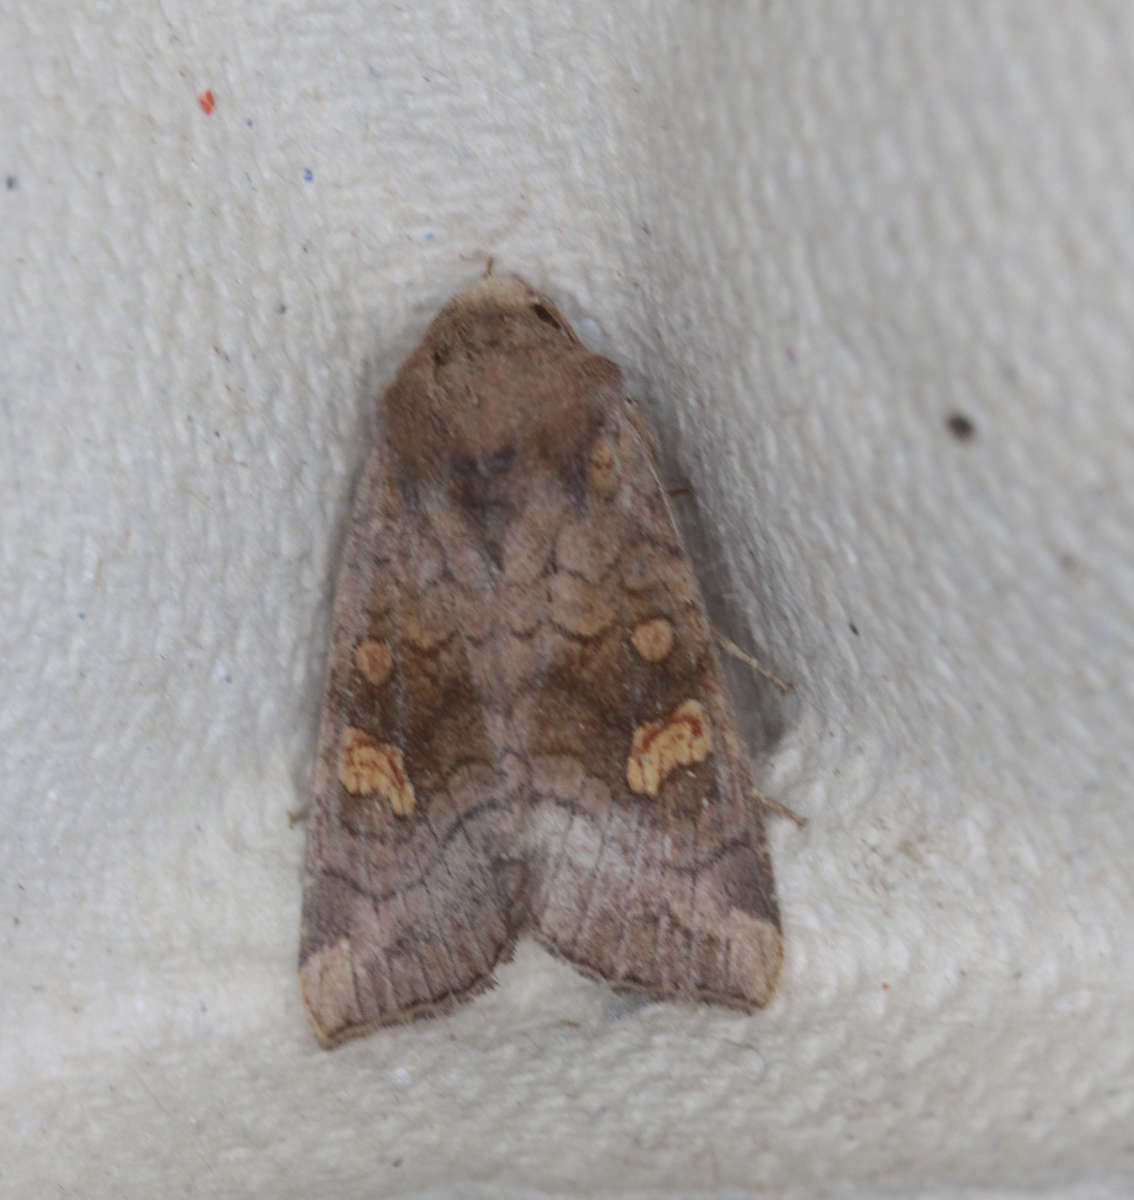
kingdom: Animalia
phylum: Arthropoda
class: Insecta
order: Lepidoptera
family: Noctuidae
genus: Amphipoea
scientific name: Amphipoea oculea
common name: Ear moth
